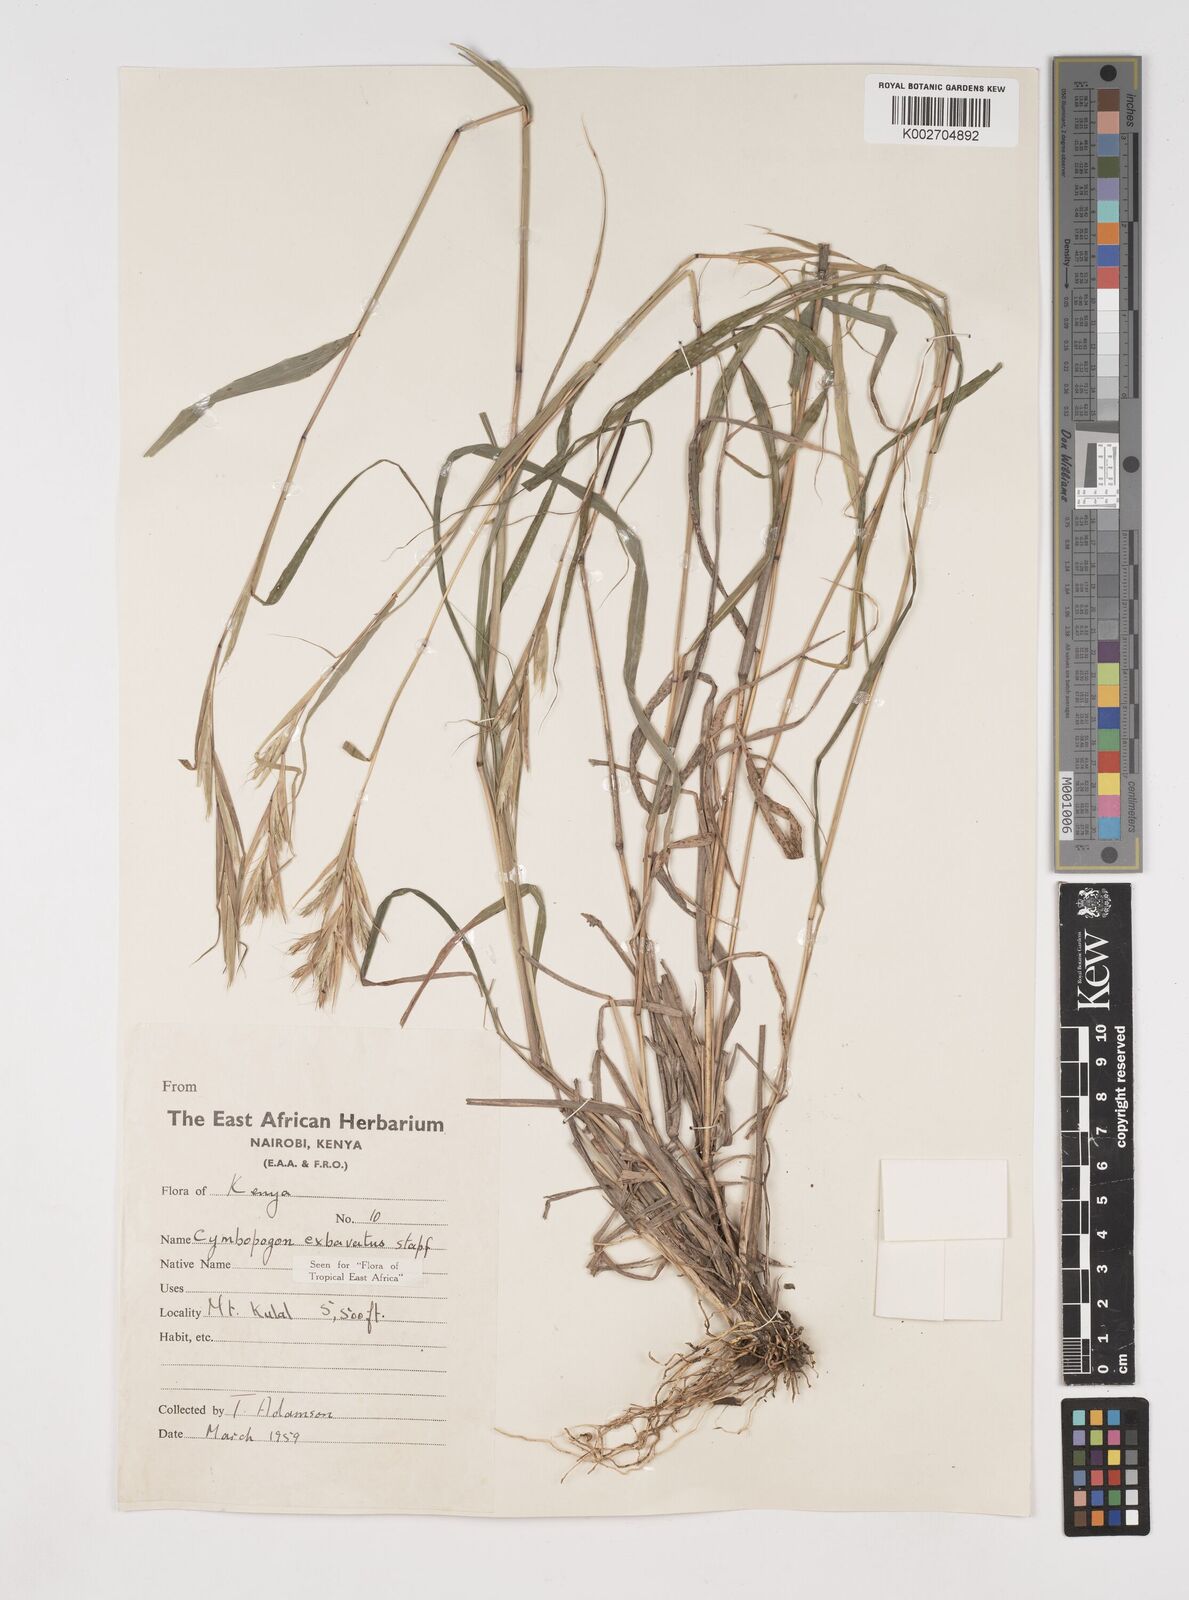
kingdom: Plantae
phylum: Tracheophyta
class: Liliopsida
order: Poales
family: Poaceae
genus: Cymbopogon
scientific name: Cymbopogon caesius
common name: Kachi grass
